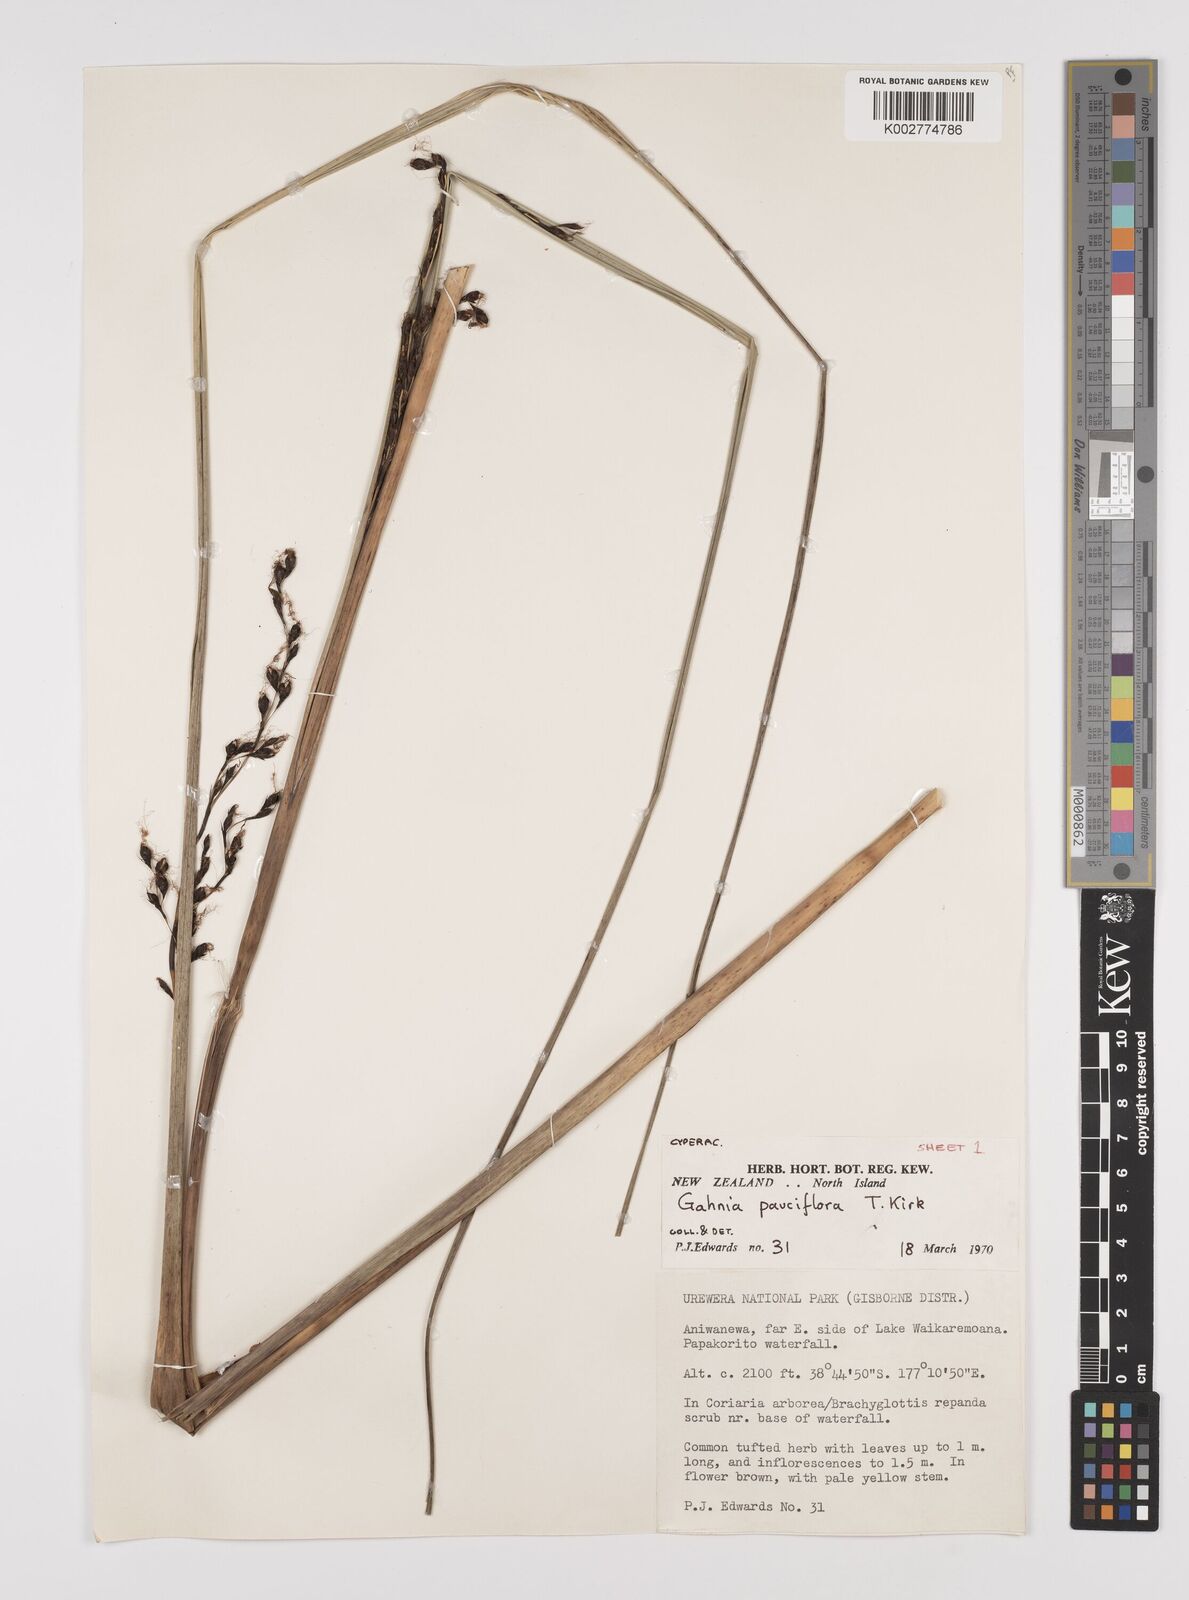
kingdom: Plantae
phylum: Tracheophyta
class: Liliopsida
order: Poales
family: Cyperaceae
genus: Gahnia
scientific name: Gahnia pauciflora
